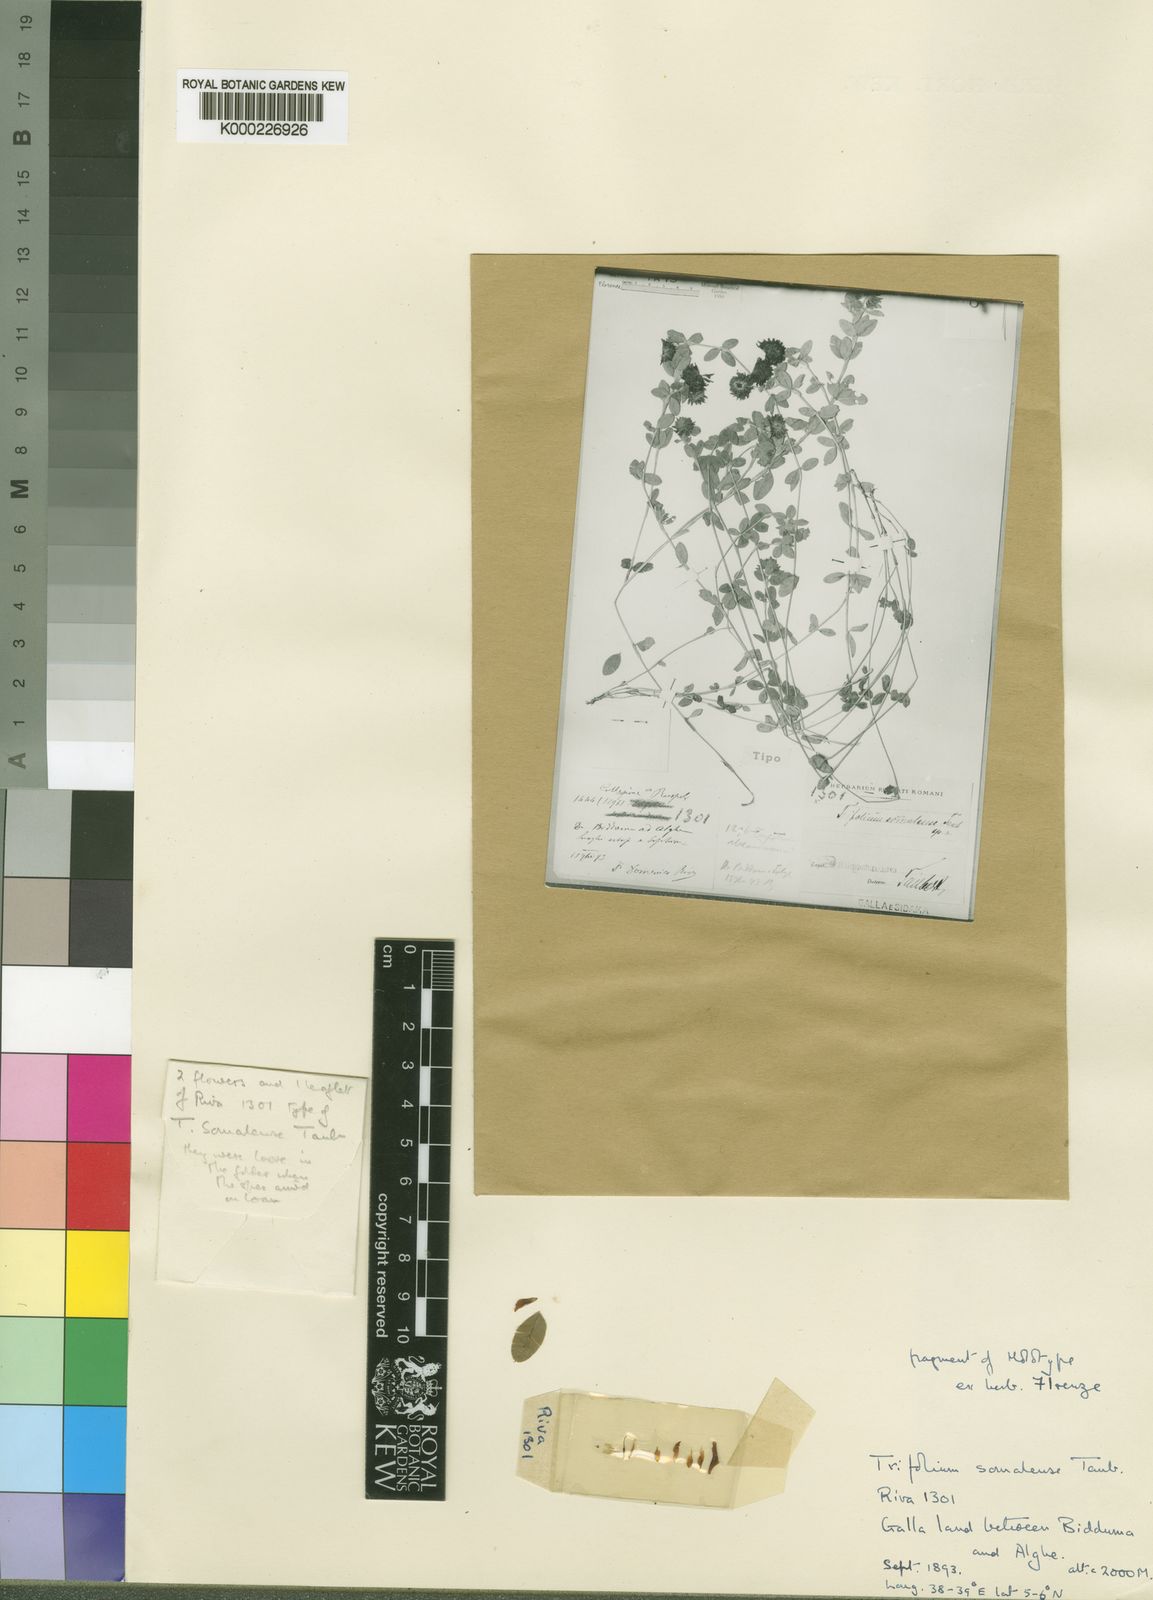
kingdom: Plantae
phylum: Tracheophyta
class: Magnoliopsida
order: Fabales
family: Fabaceae
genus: Trifolium
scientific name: Trifolium somalense
